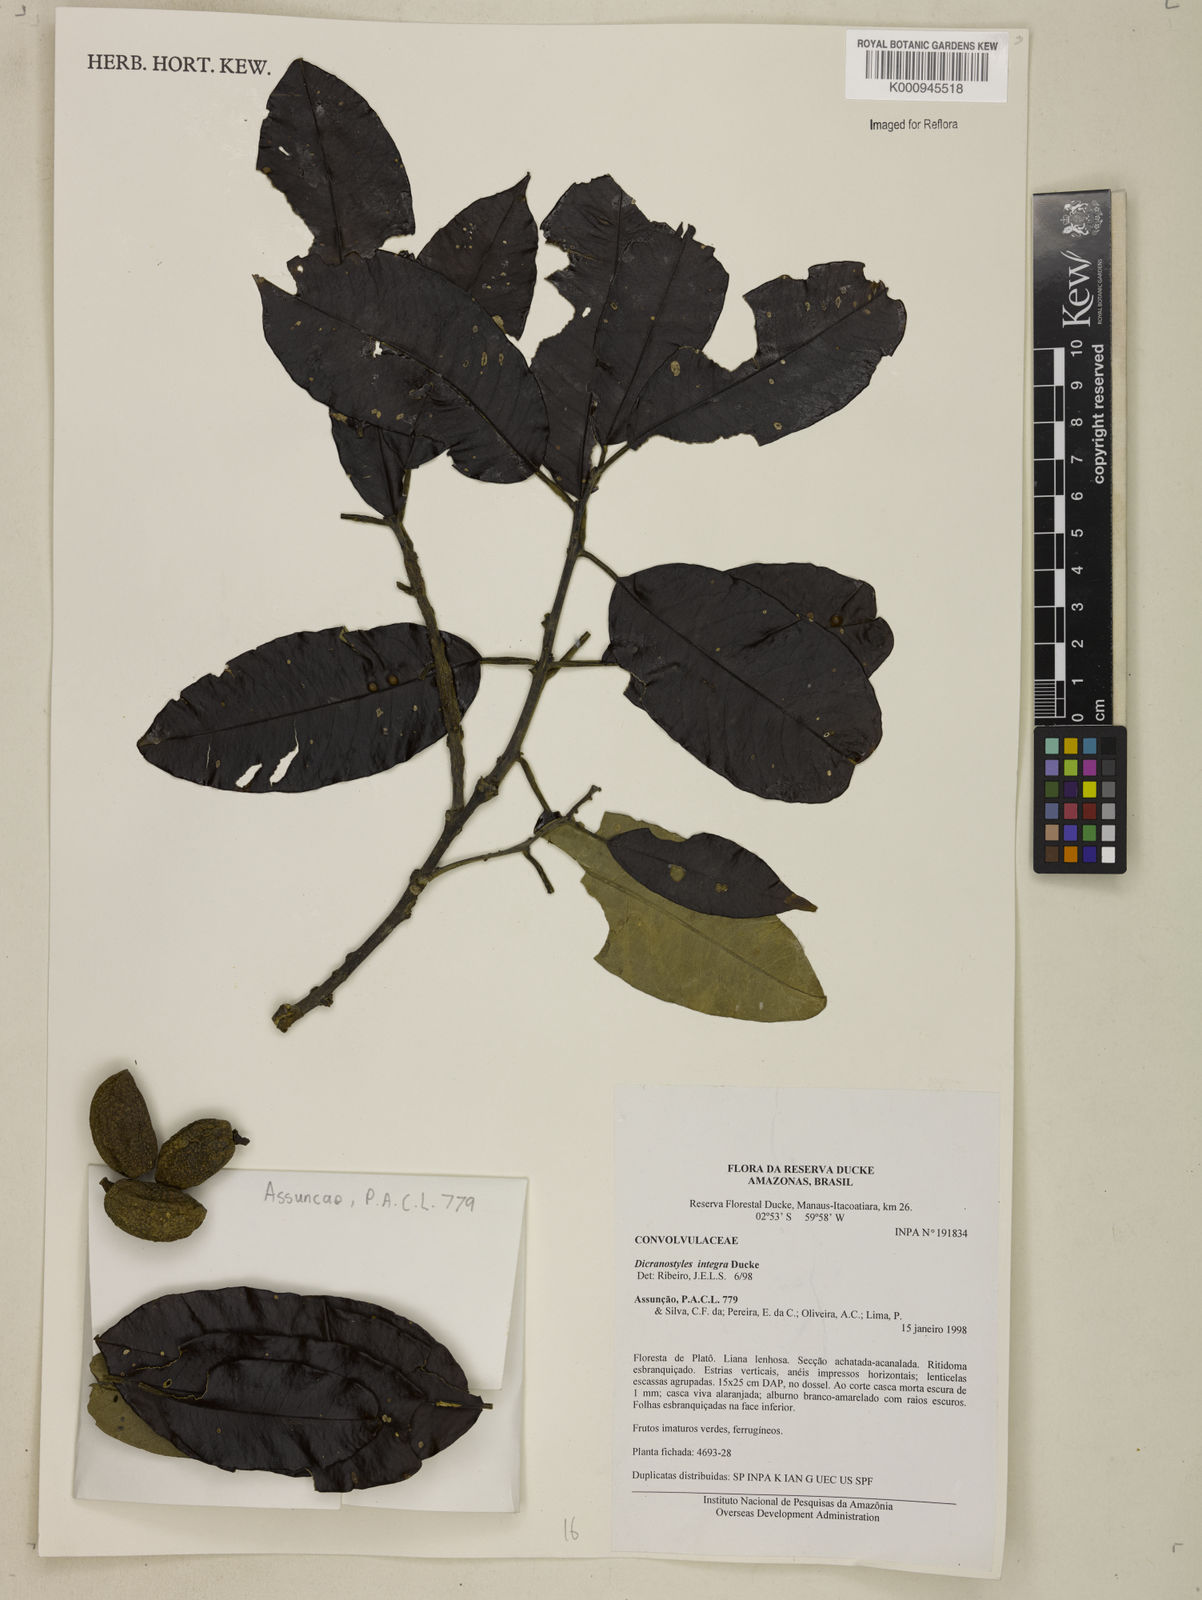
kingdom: Plantae
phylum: Tracheophyta
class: Magnoliopsida
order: Solanales
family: Convolvulaceae
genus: Dicranostyles
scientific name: Dicranostyles integra
